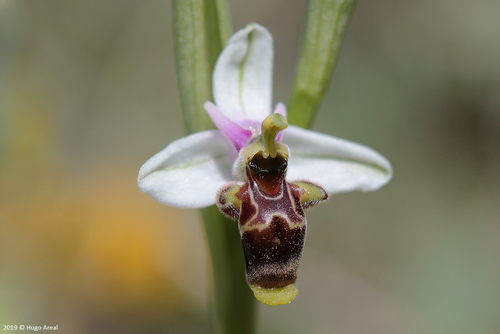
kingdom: Plantae
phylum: Tracheophyta
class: Liliopsida
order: Asparagales
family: Orchidaceae
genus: Ophrys
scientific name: Ophrys scolopax
